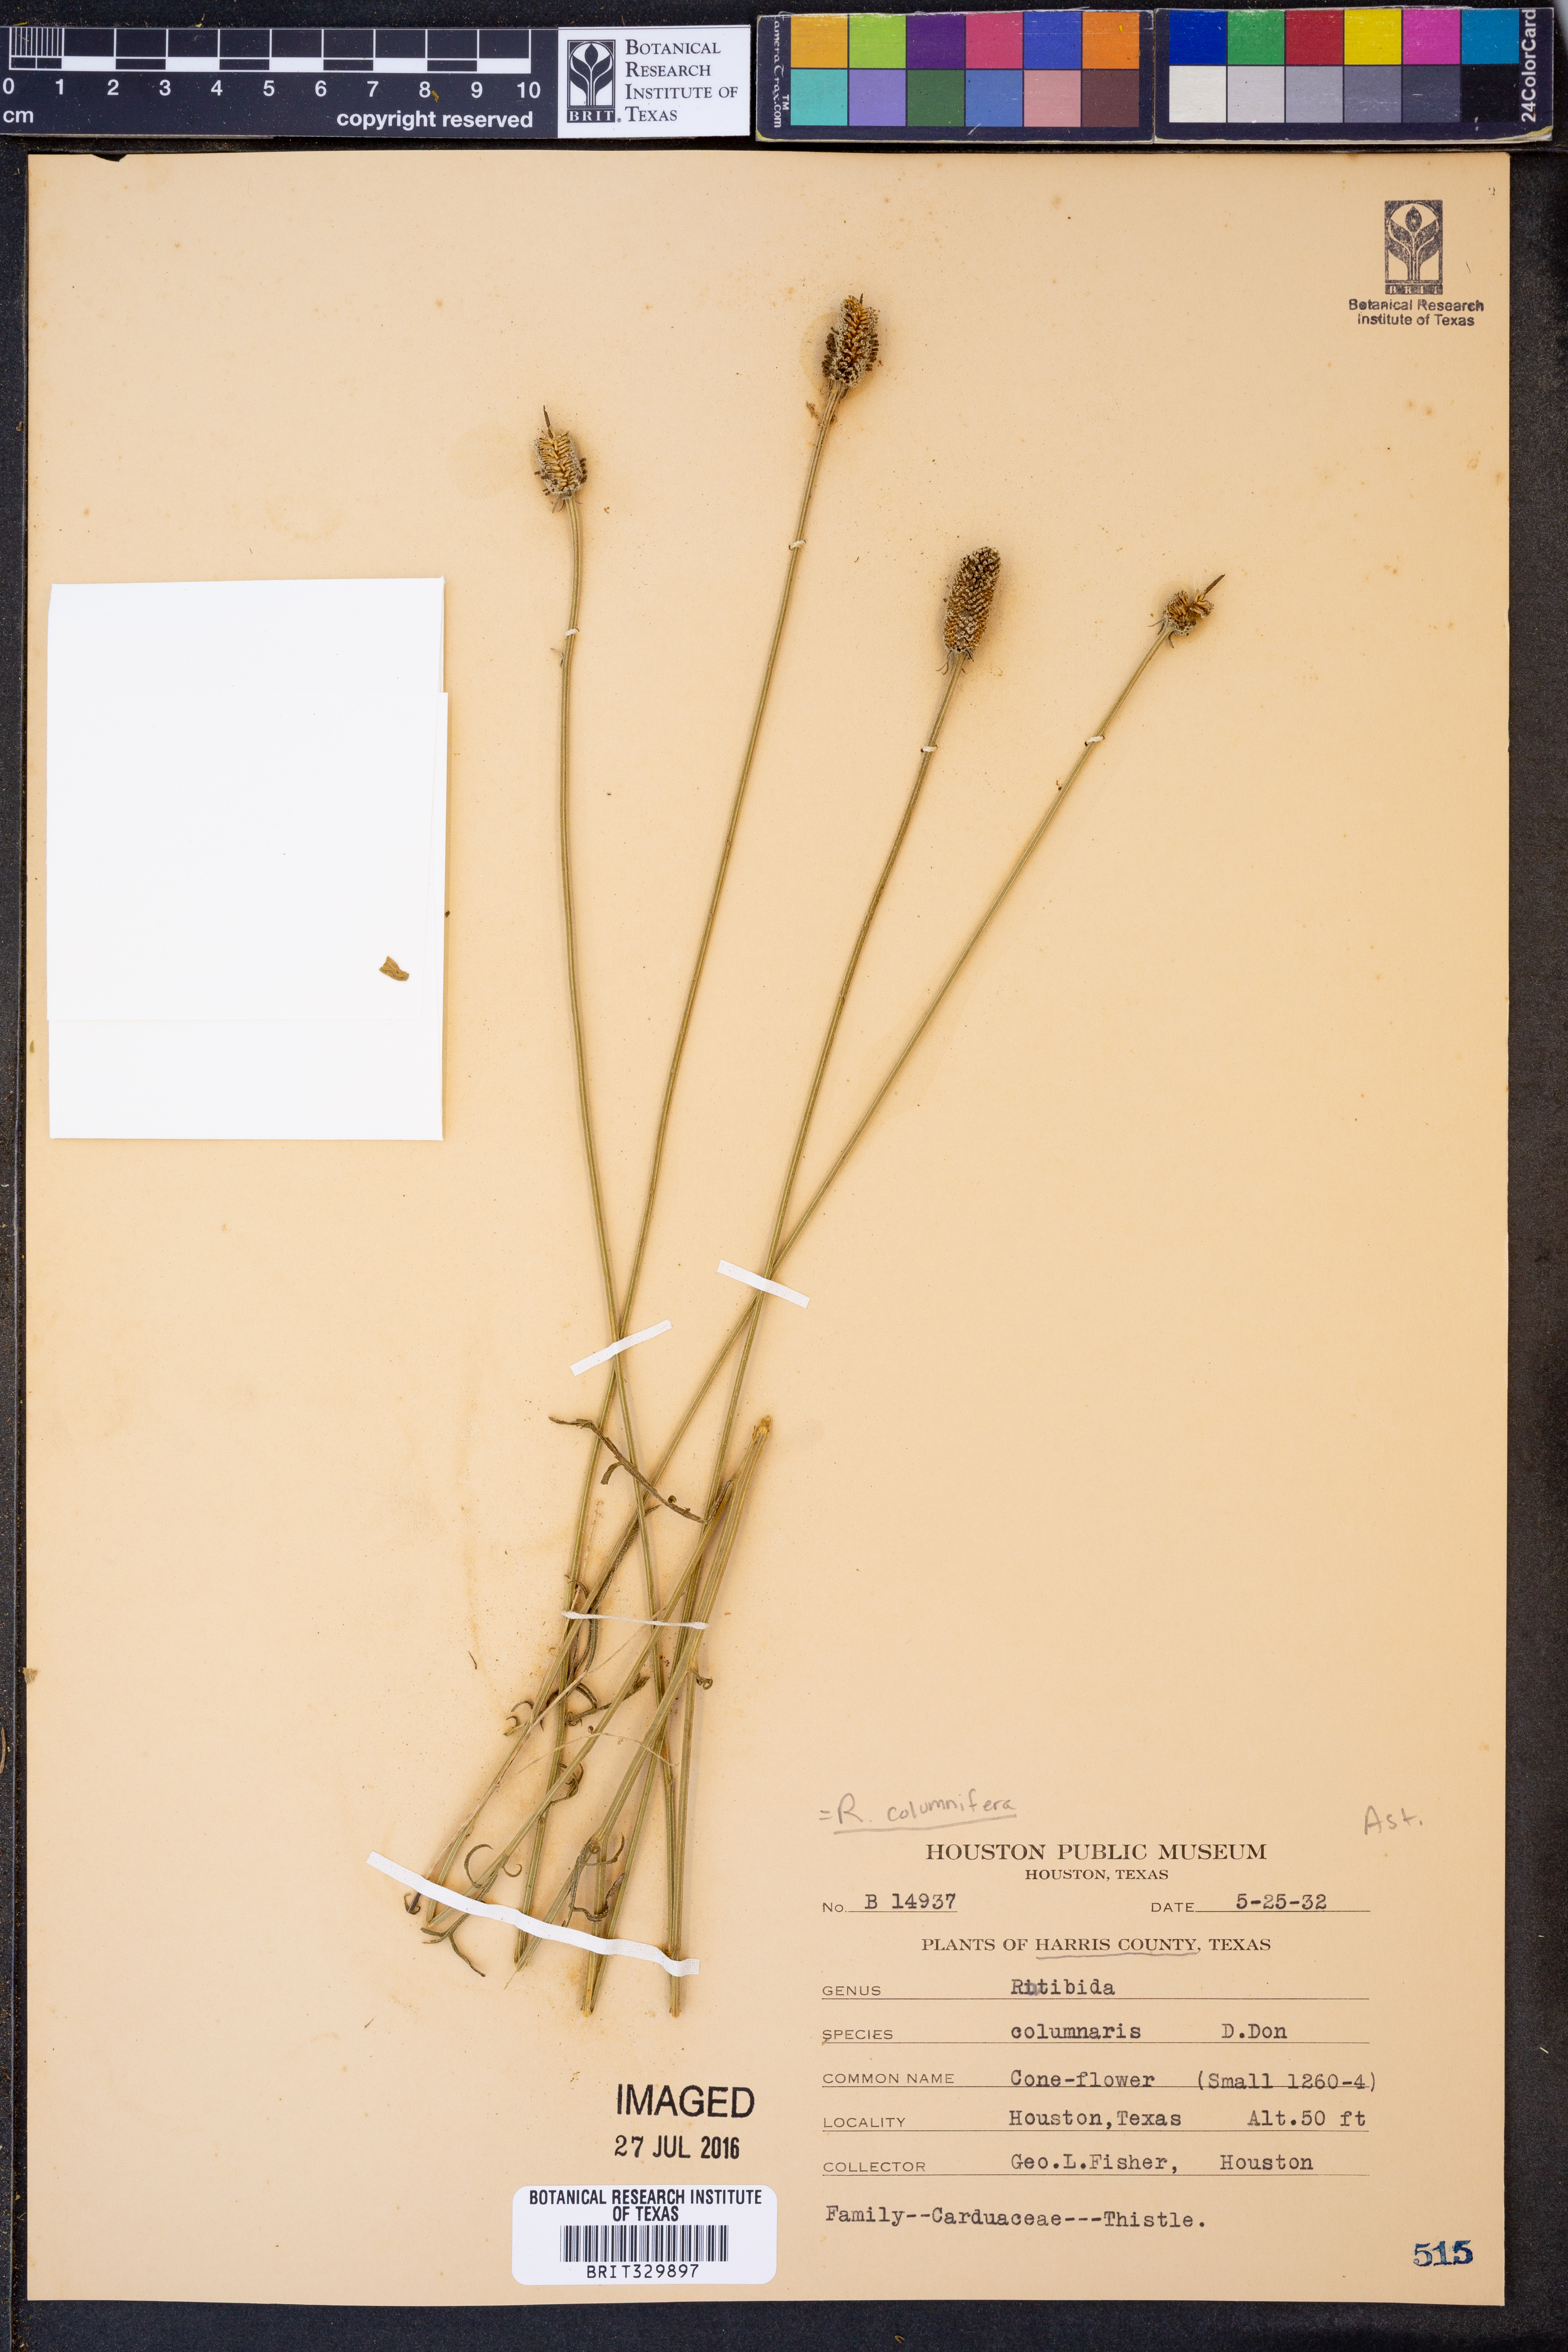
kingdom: Plantae
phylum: Tracheophyta
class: Magnoliopsida
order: Asterales
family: Asteraceae
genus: Ratibida
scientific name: Ratibida columnifera
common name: Prairie coneflower
